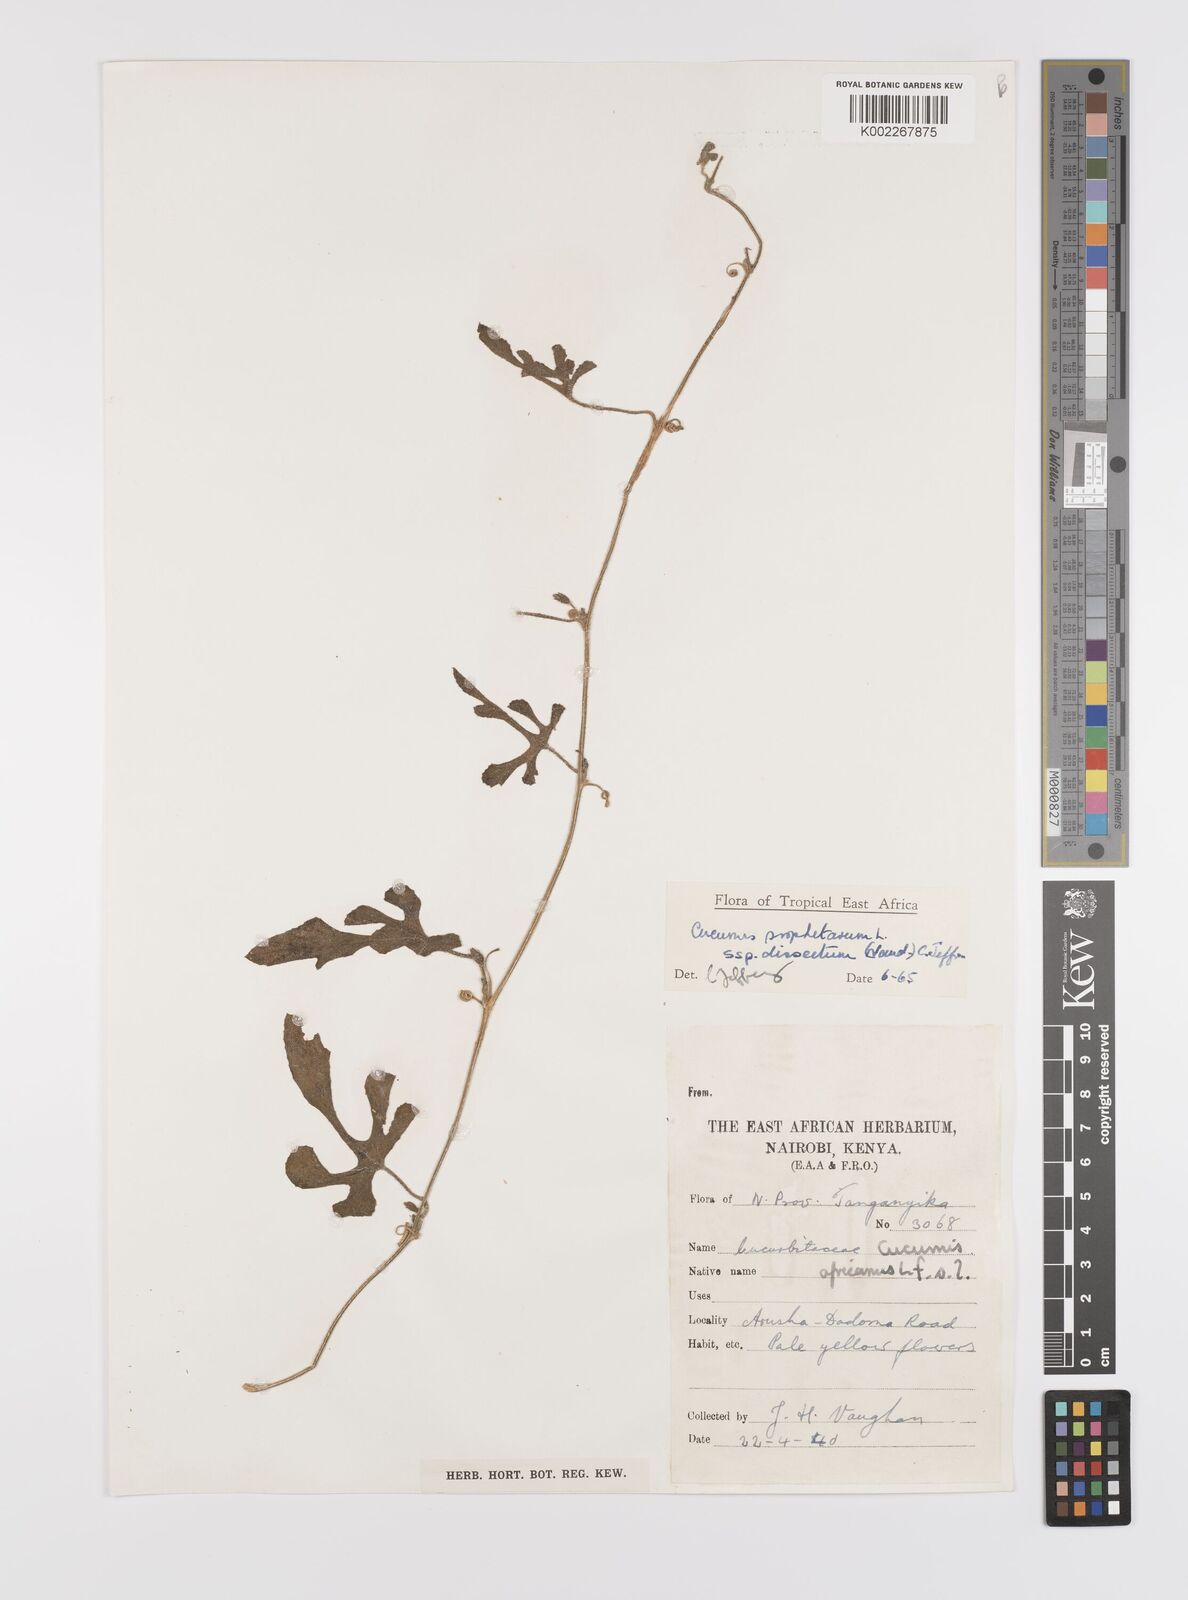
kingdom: Plantae
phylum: Tracheophyta
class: Magnoliopsida
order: Cucurbitales
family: Cucurbitaceae
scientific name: Cucurbitaceae
